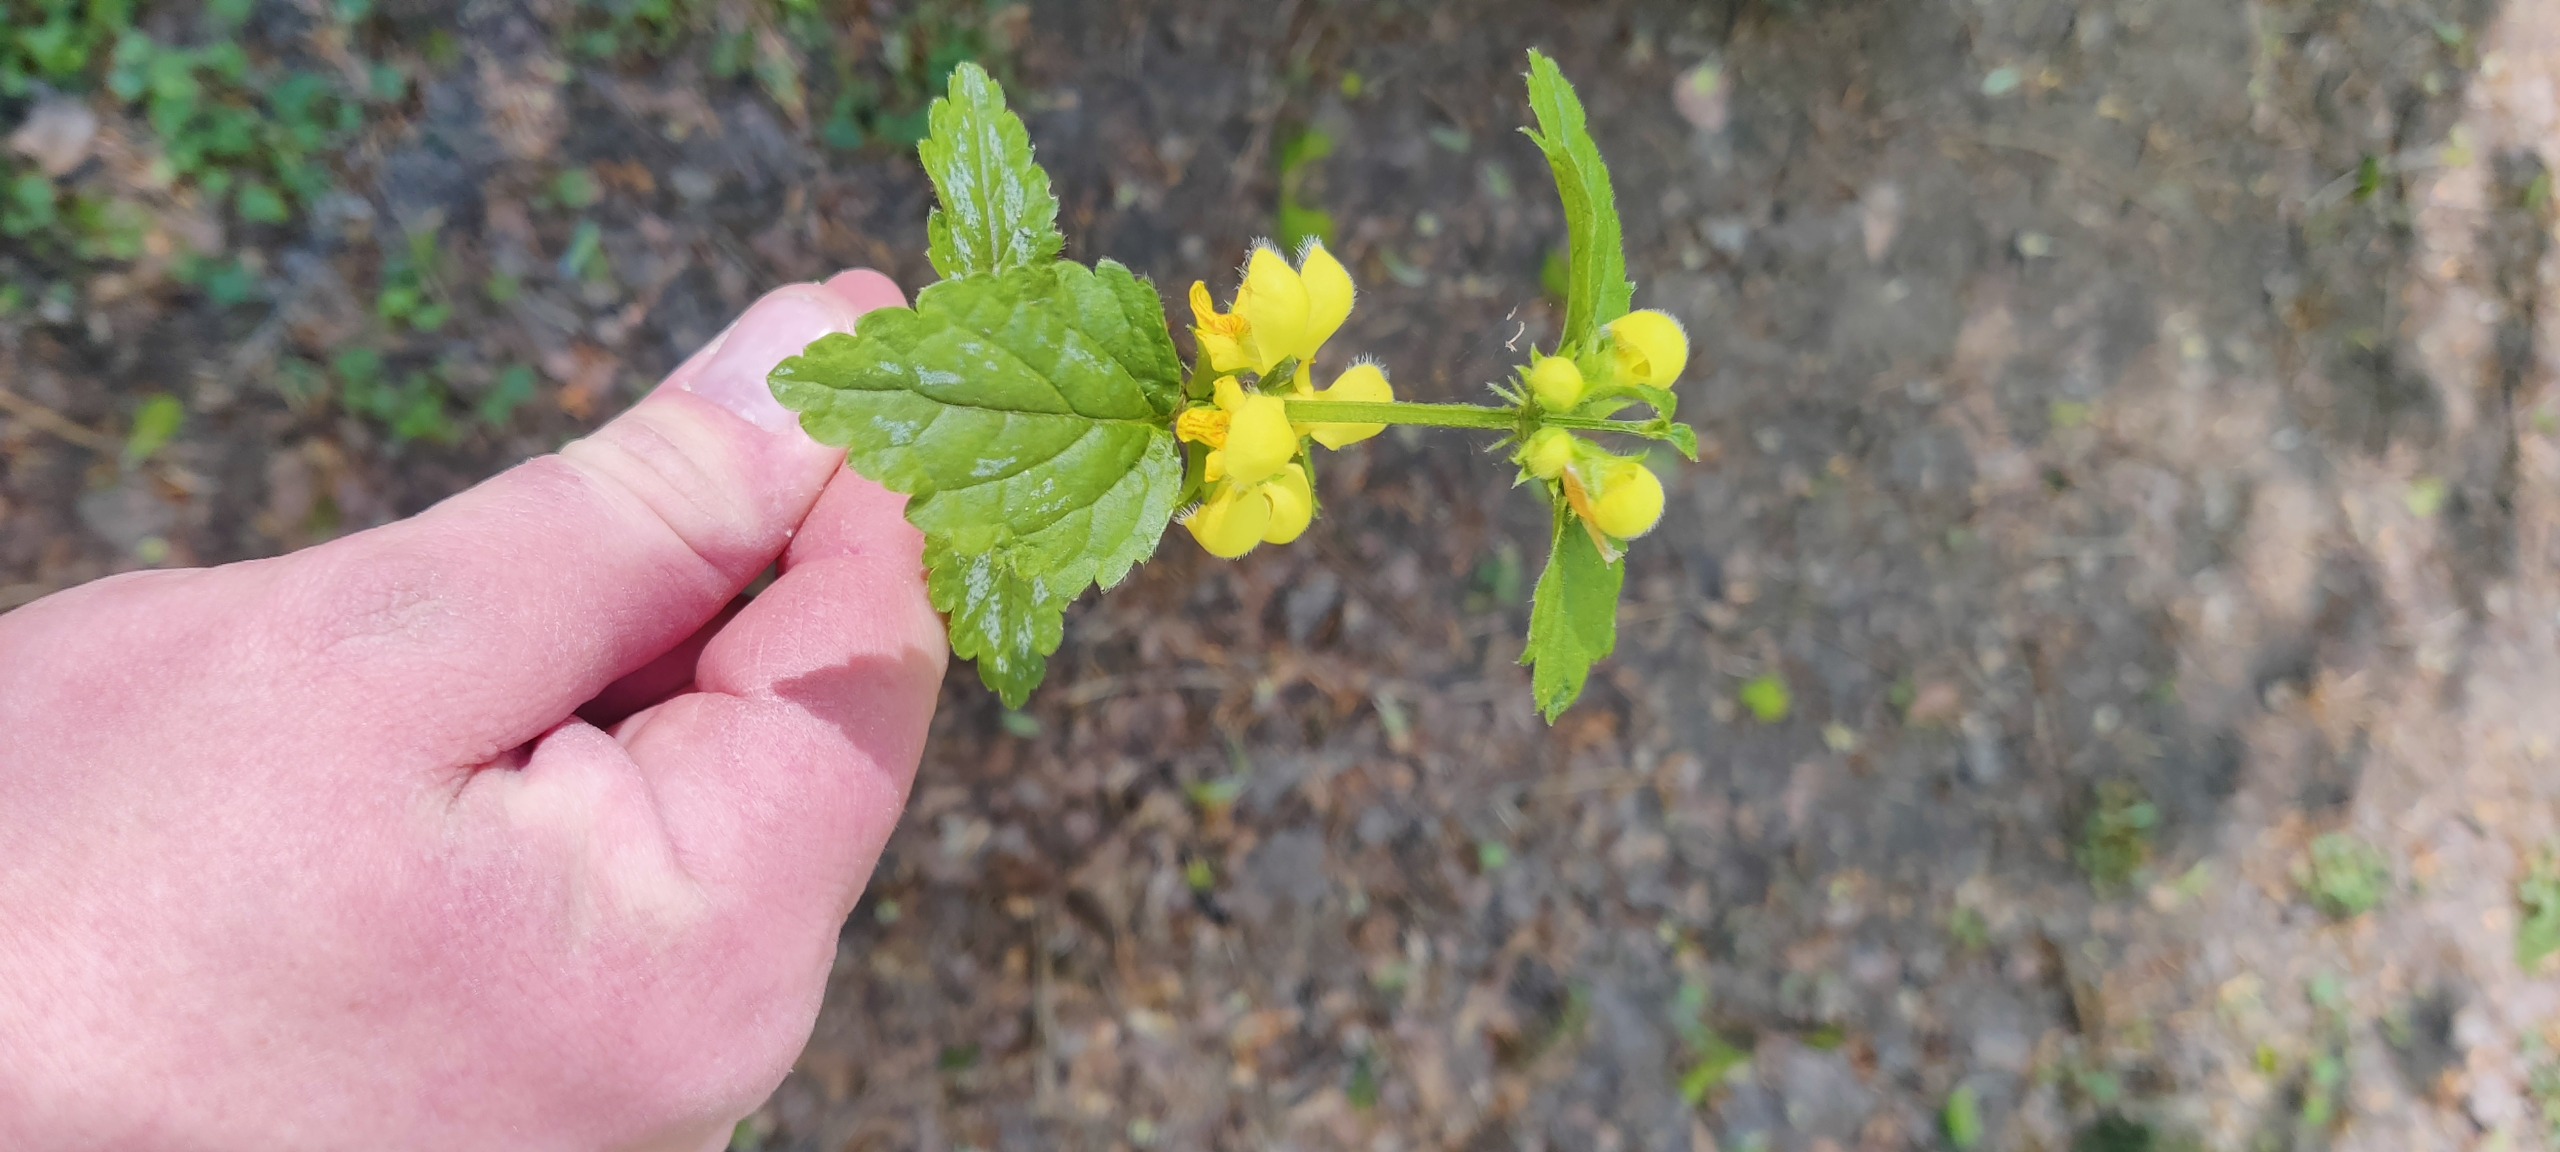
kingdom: Plantae
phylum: Tracheophyta
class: Magnoliopsida
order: Lamiales
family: Lamiaceae
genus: Lamium
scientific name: Lamium galeobdolon
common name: Have-guldnælde
